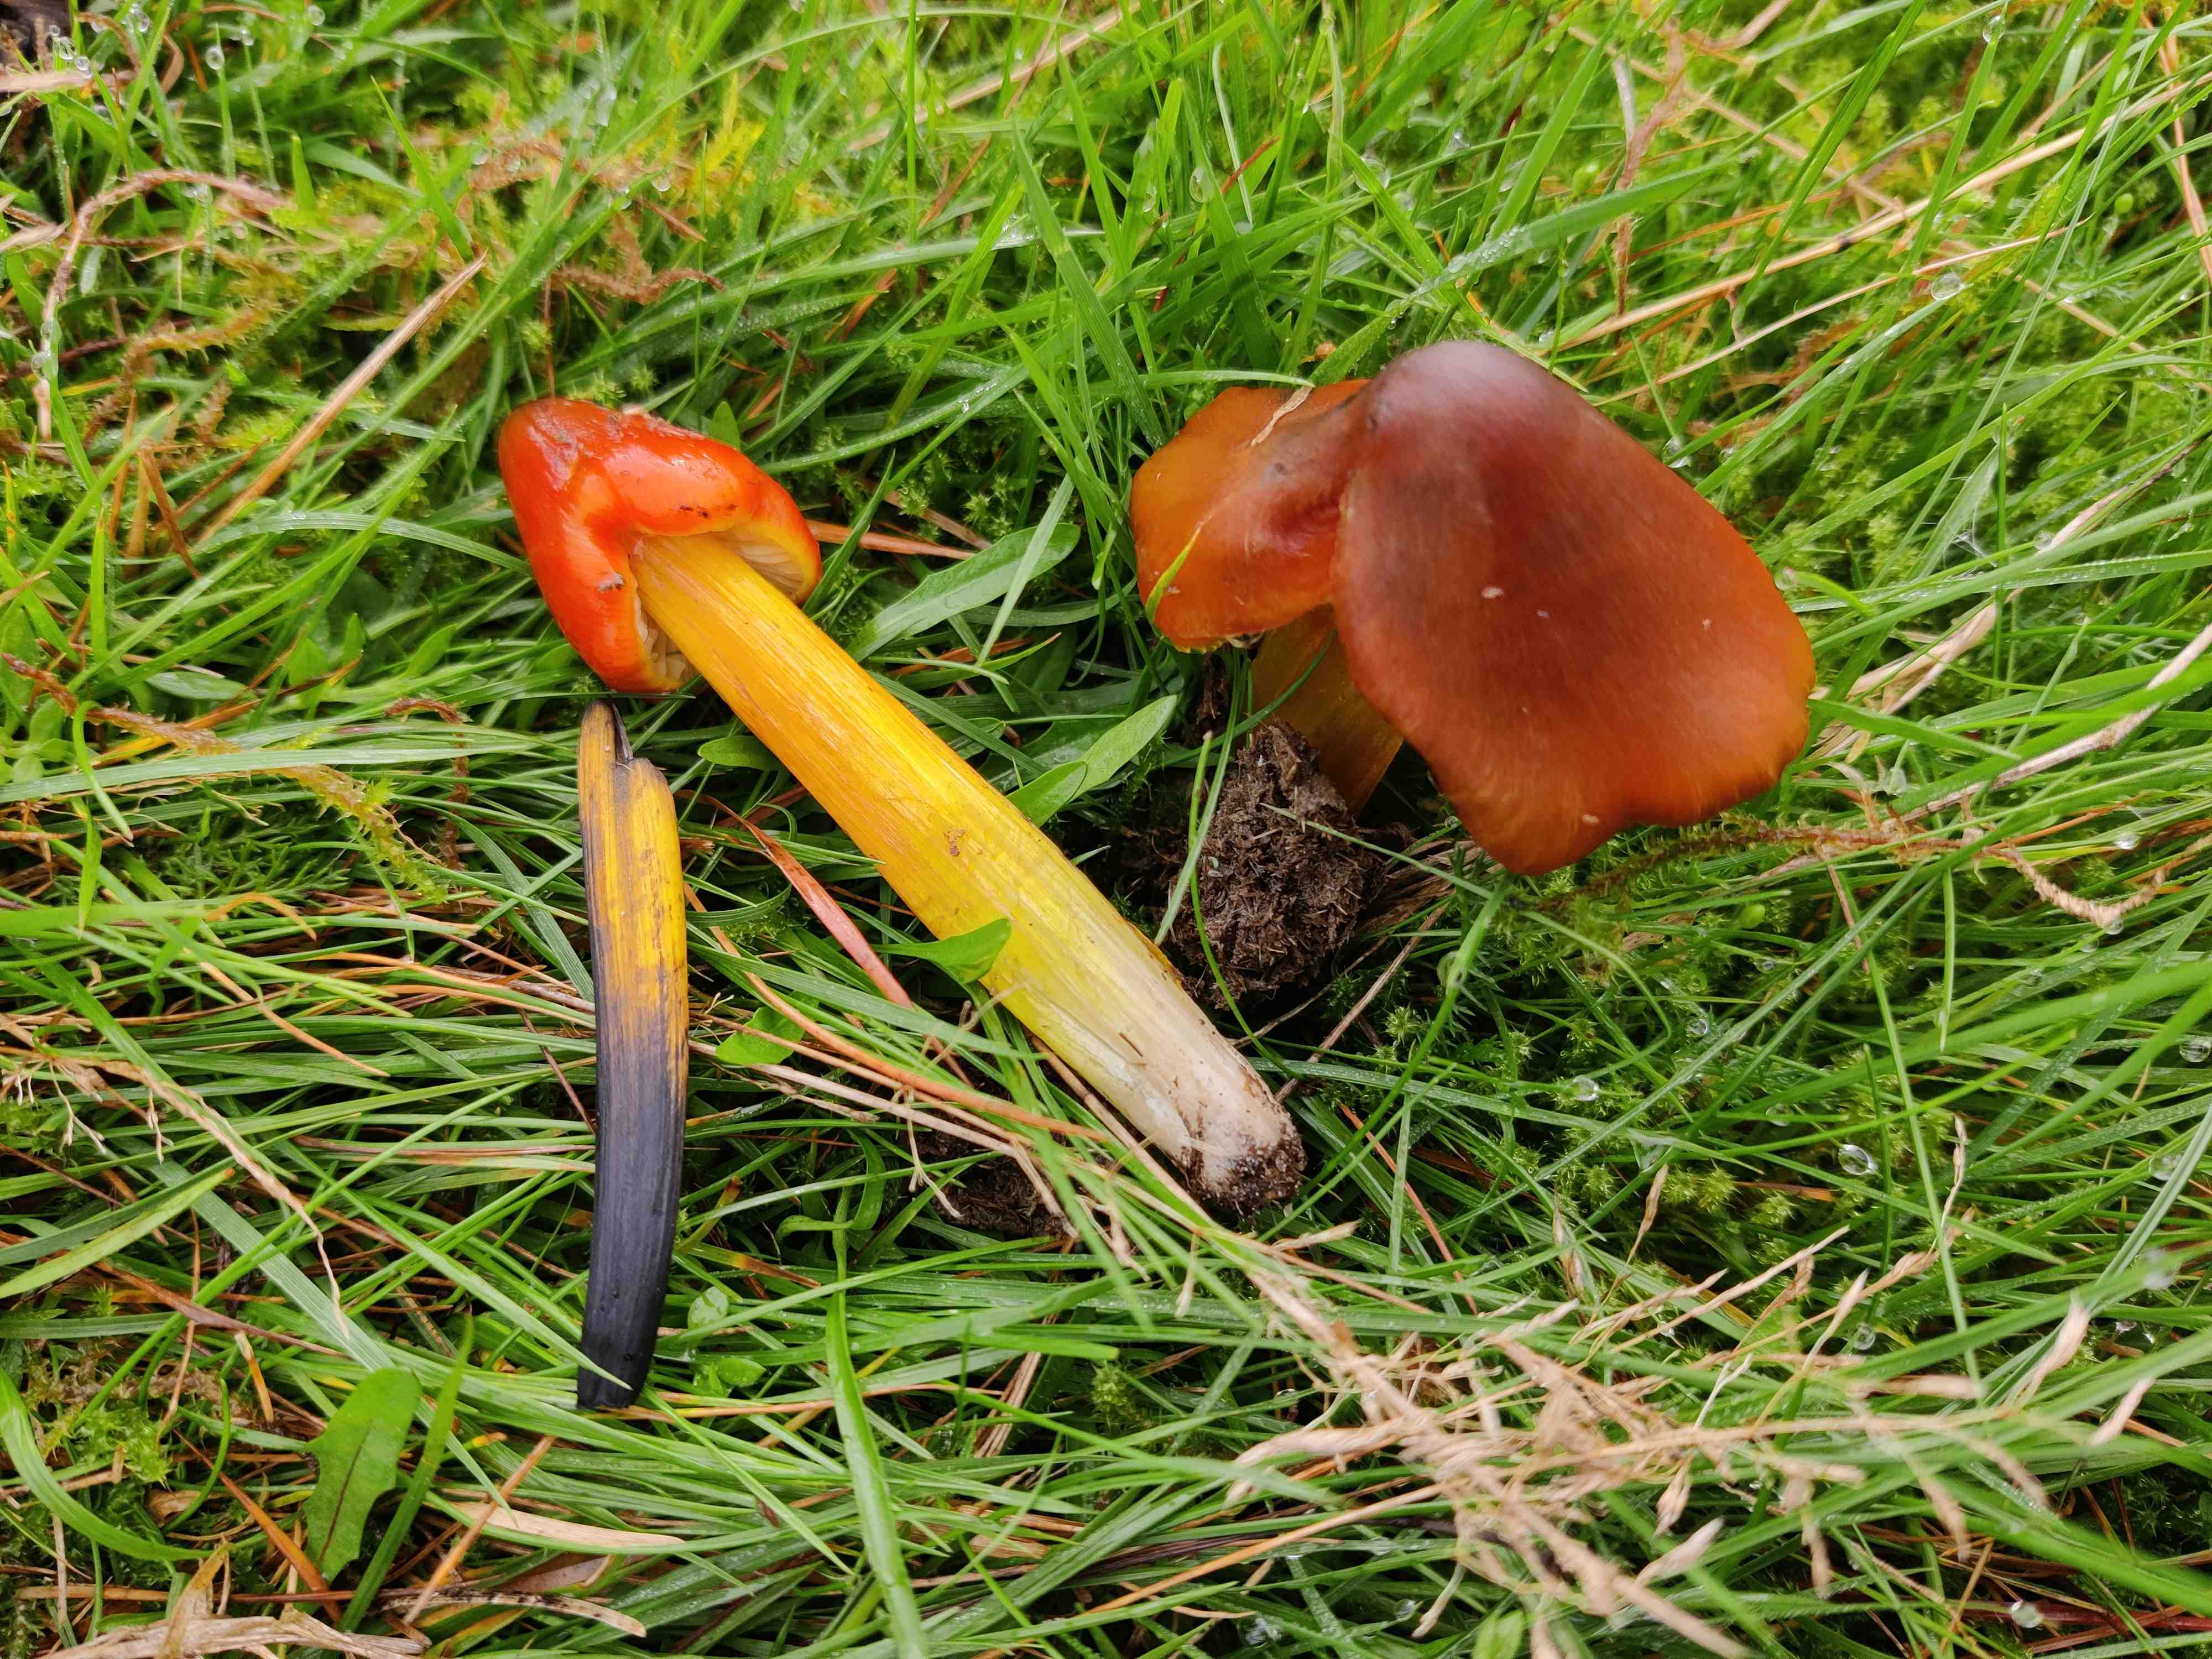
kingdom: Fungi
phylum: Basidiomycota
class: Agaricomycetes
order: Agaricales
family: Hygrophoraceae
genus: Hygrocybe
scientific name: Hygrocybe conica
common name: kegle-vokshat
